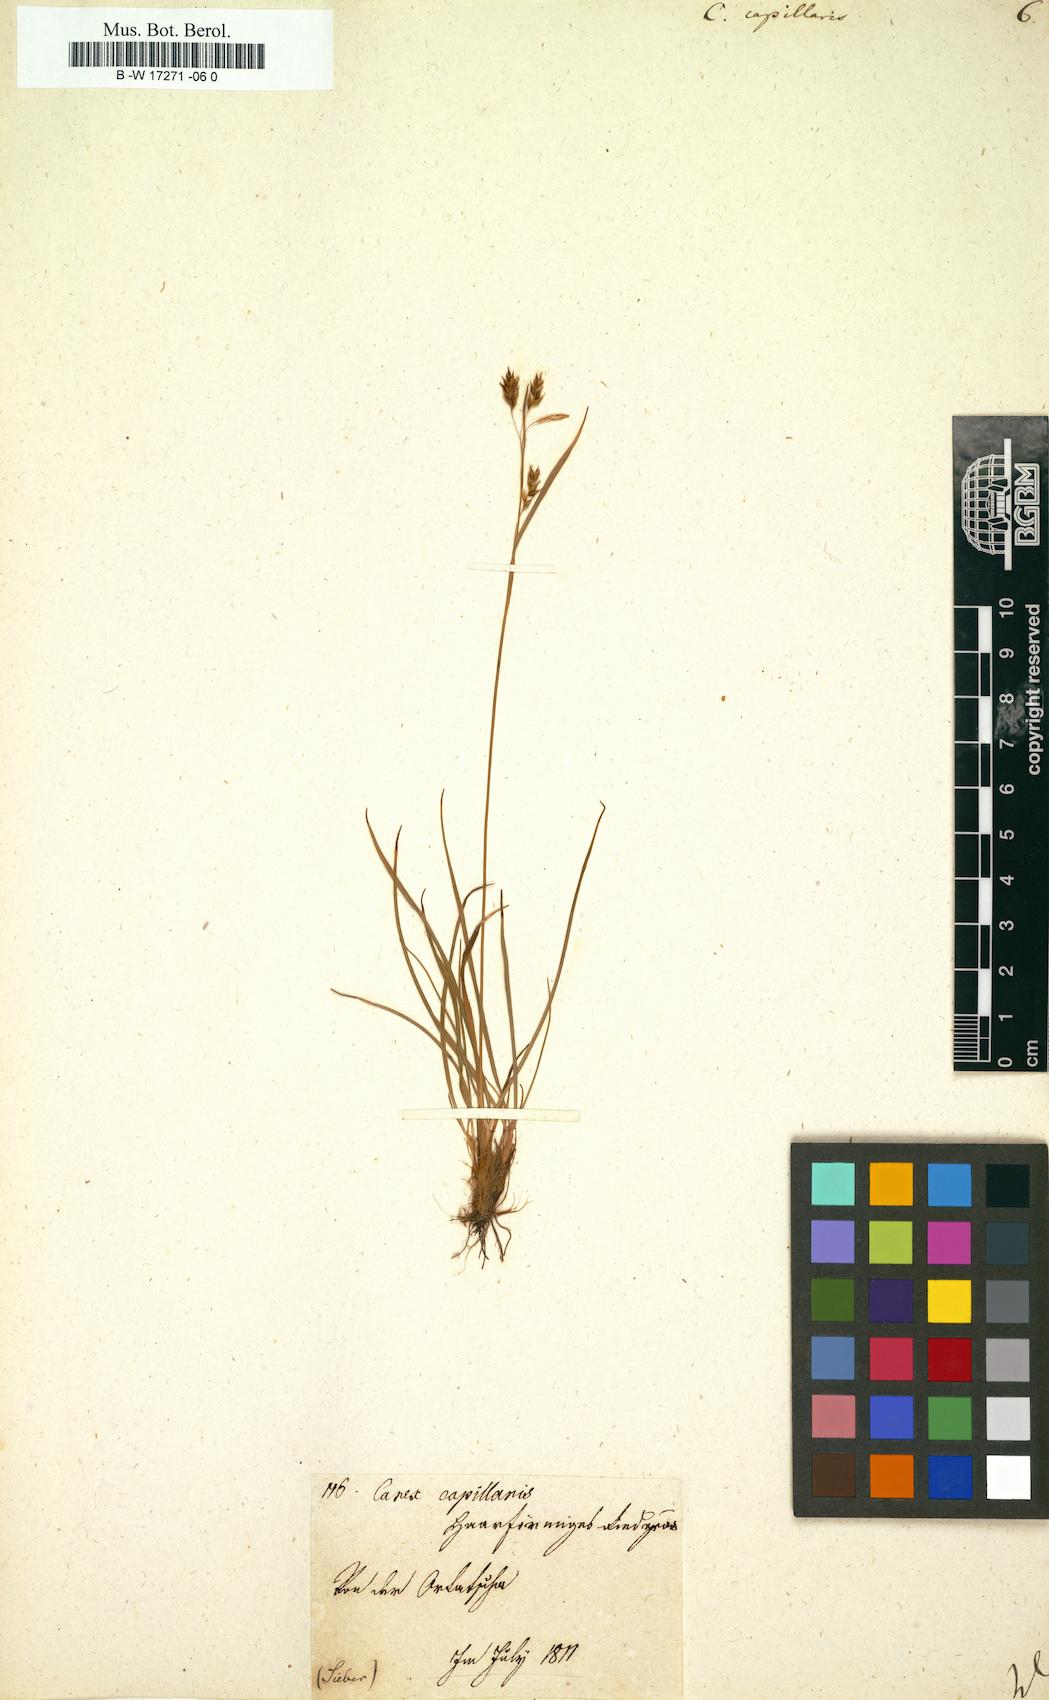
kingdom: Plantae
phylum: Tracheophyta
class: Liliopsida
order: Poales
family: Cyperaceae
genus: Carex
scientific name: Carex capillaris
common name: Hair sedge
